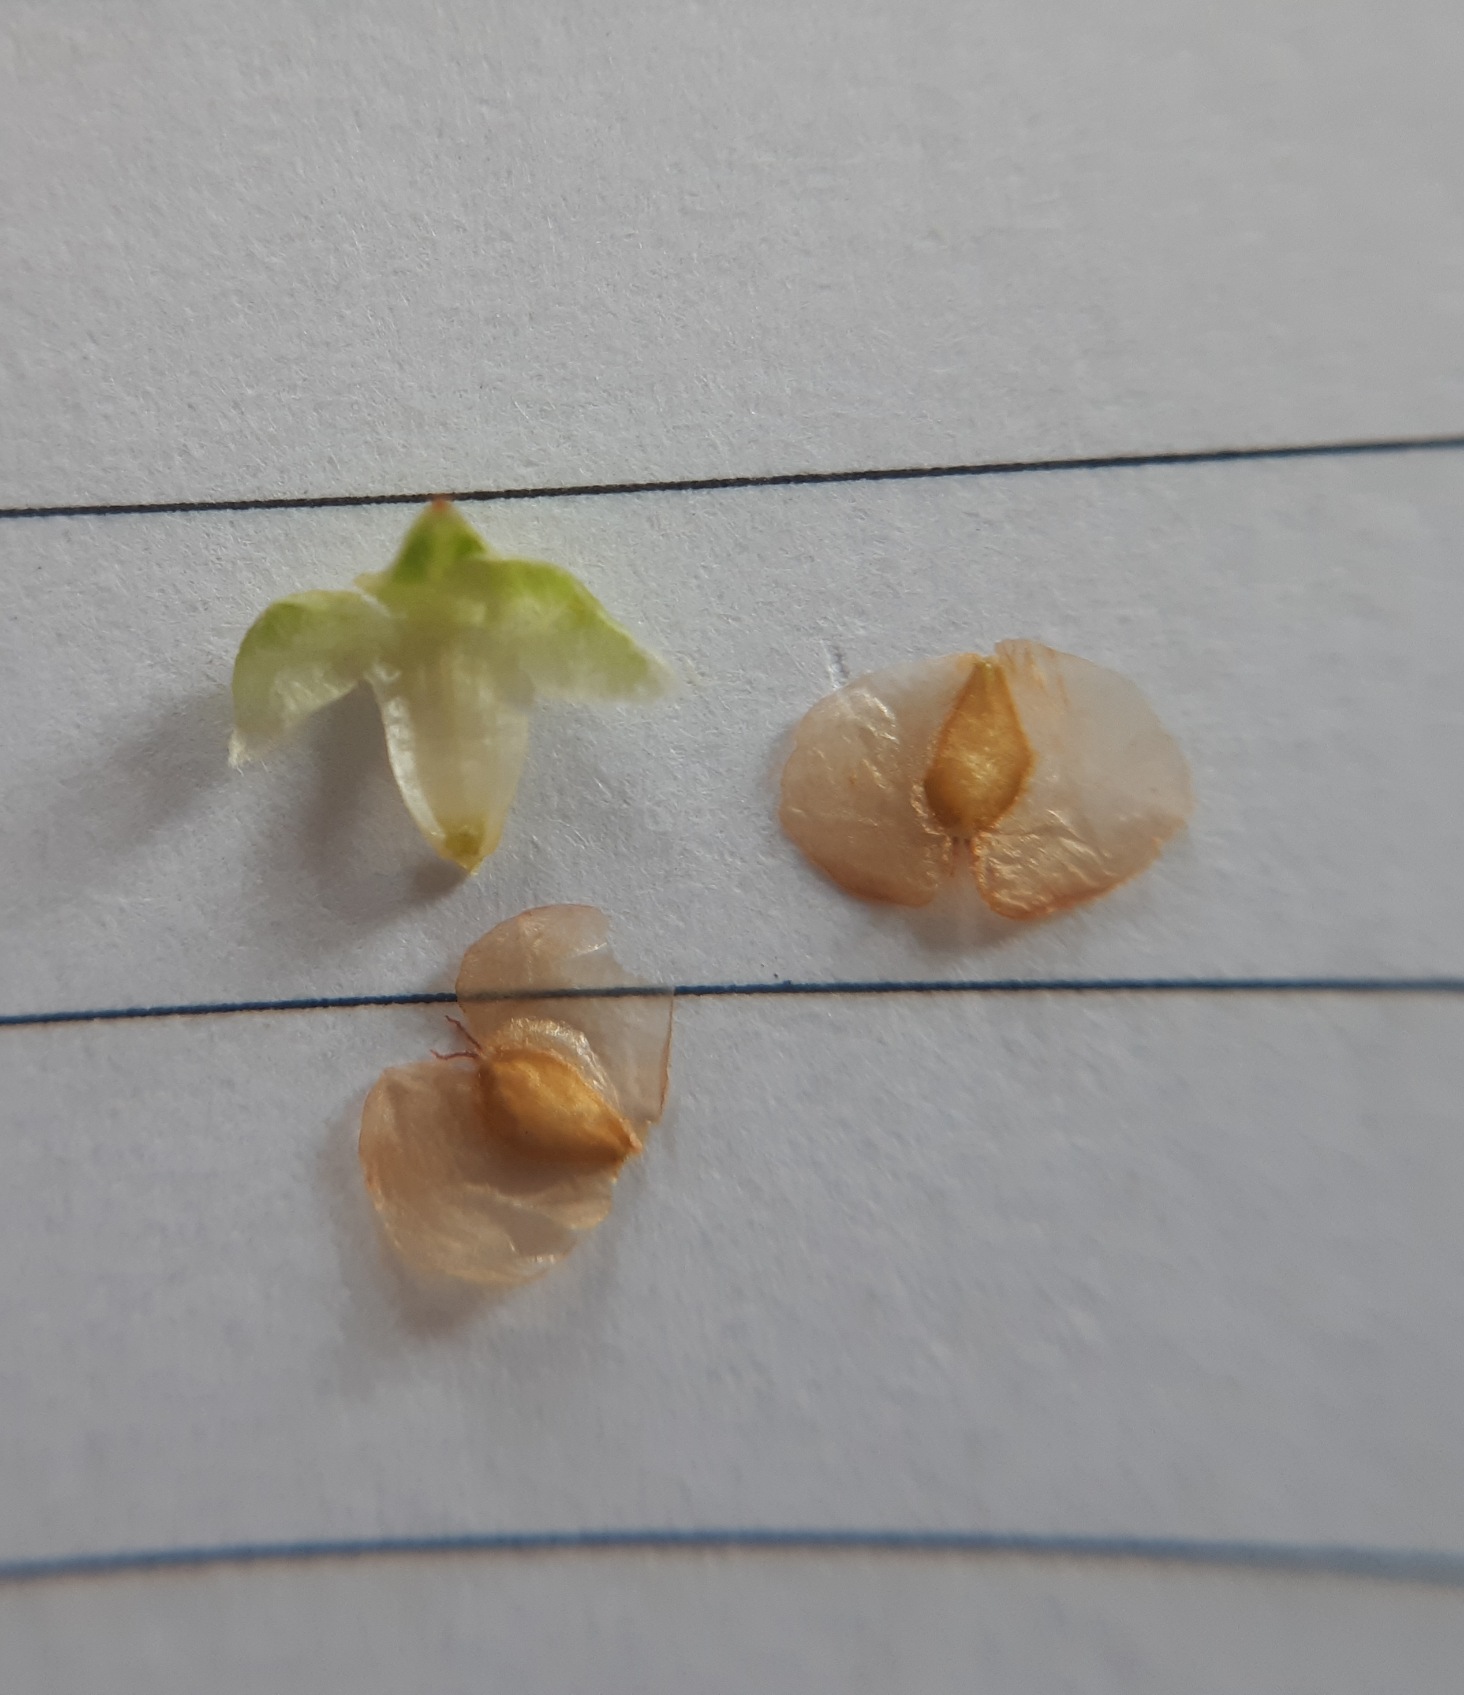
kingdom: Plantae
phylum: Tracheophyta
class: Magnoliopsida
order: Fagales
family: Betulaceae
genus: Betula
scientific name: Betula pendula
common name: Vorte-birk
